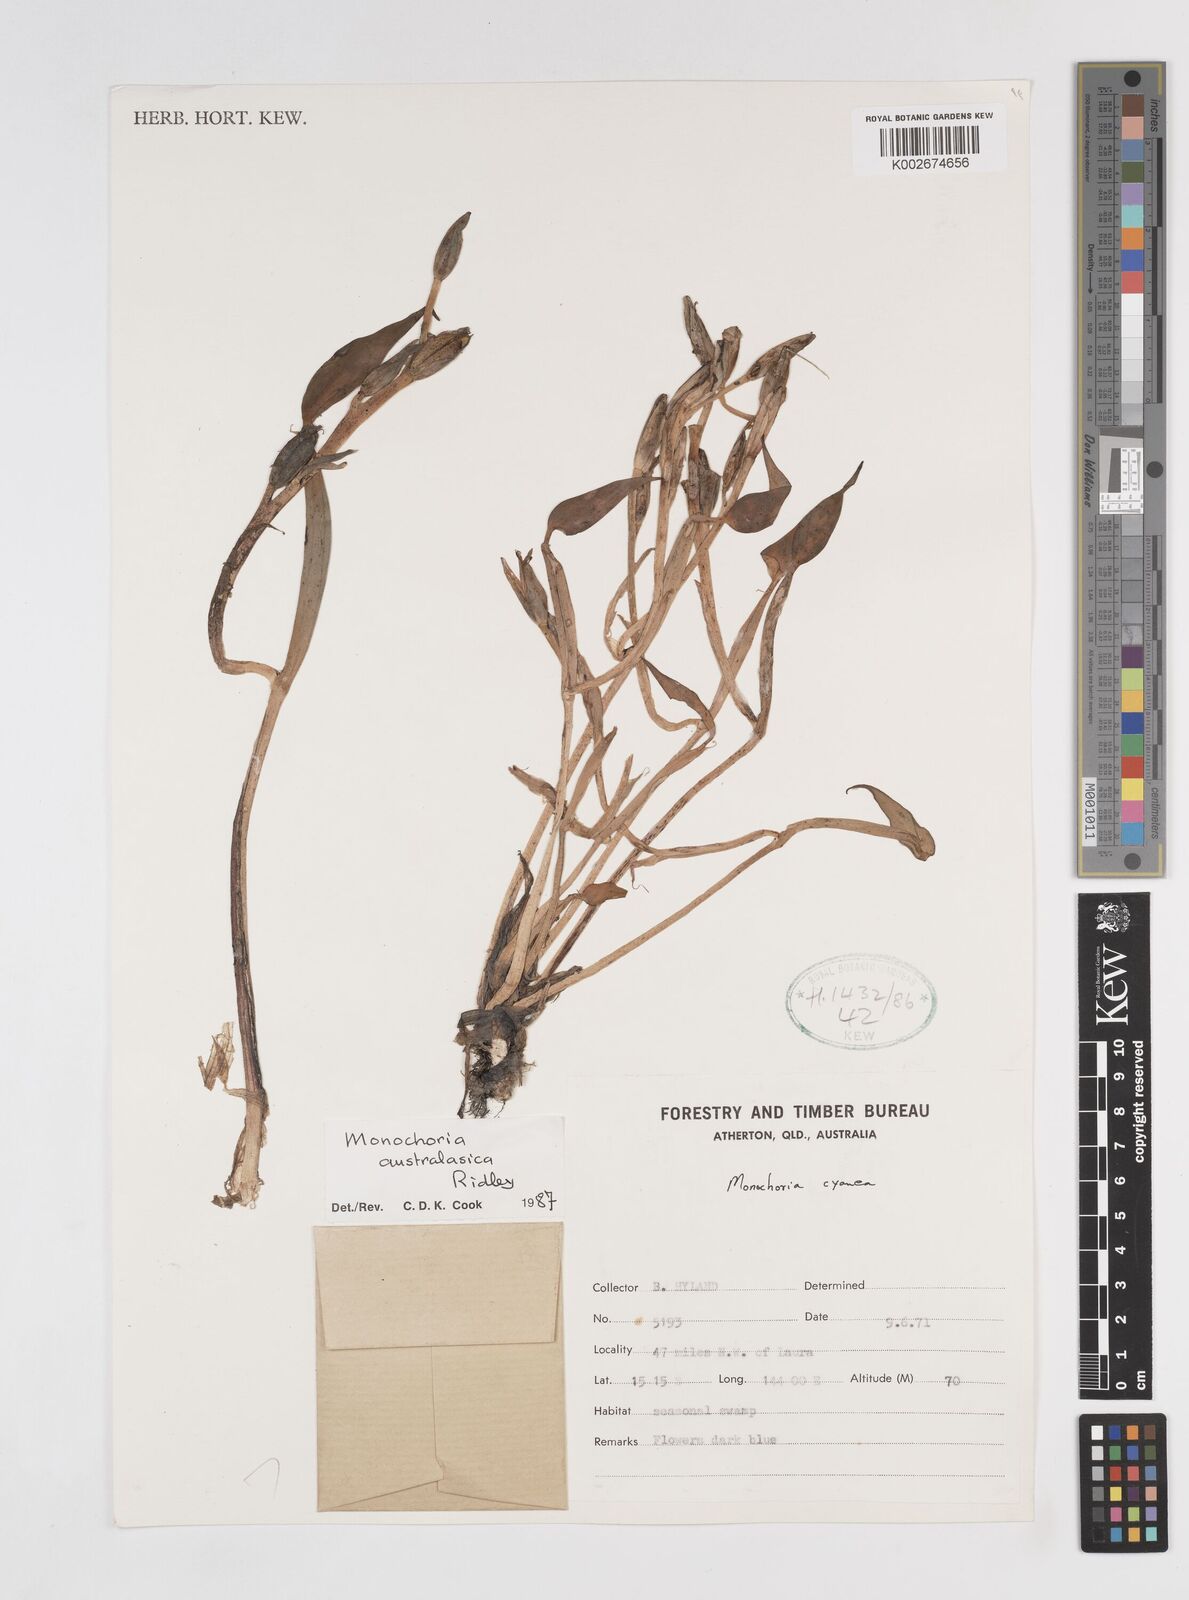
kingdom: Plantae
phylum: Tracheophyta
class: Liliopsida
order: Commelinales
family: Pontederiaceae
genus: Pontederia
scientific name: Pontederia australasica
